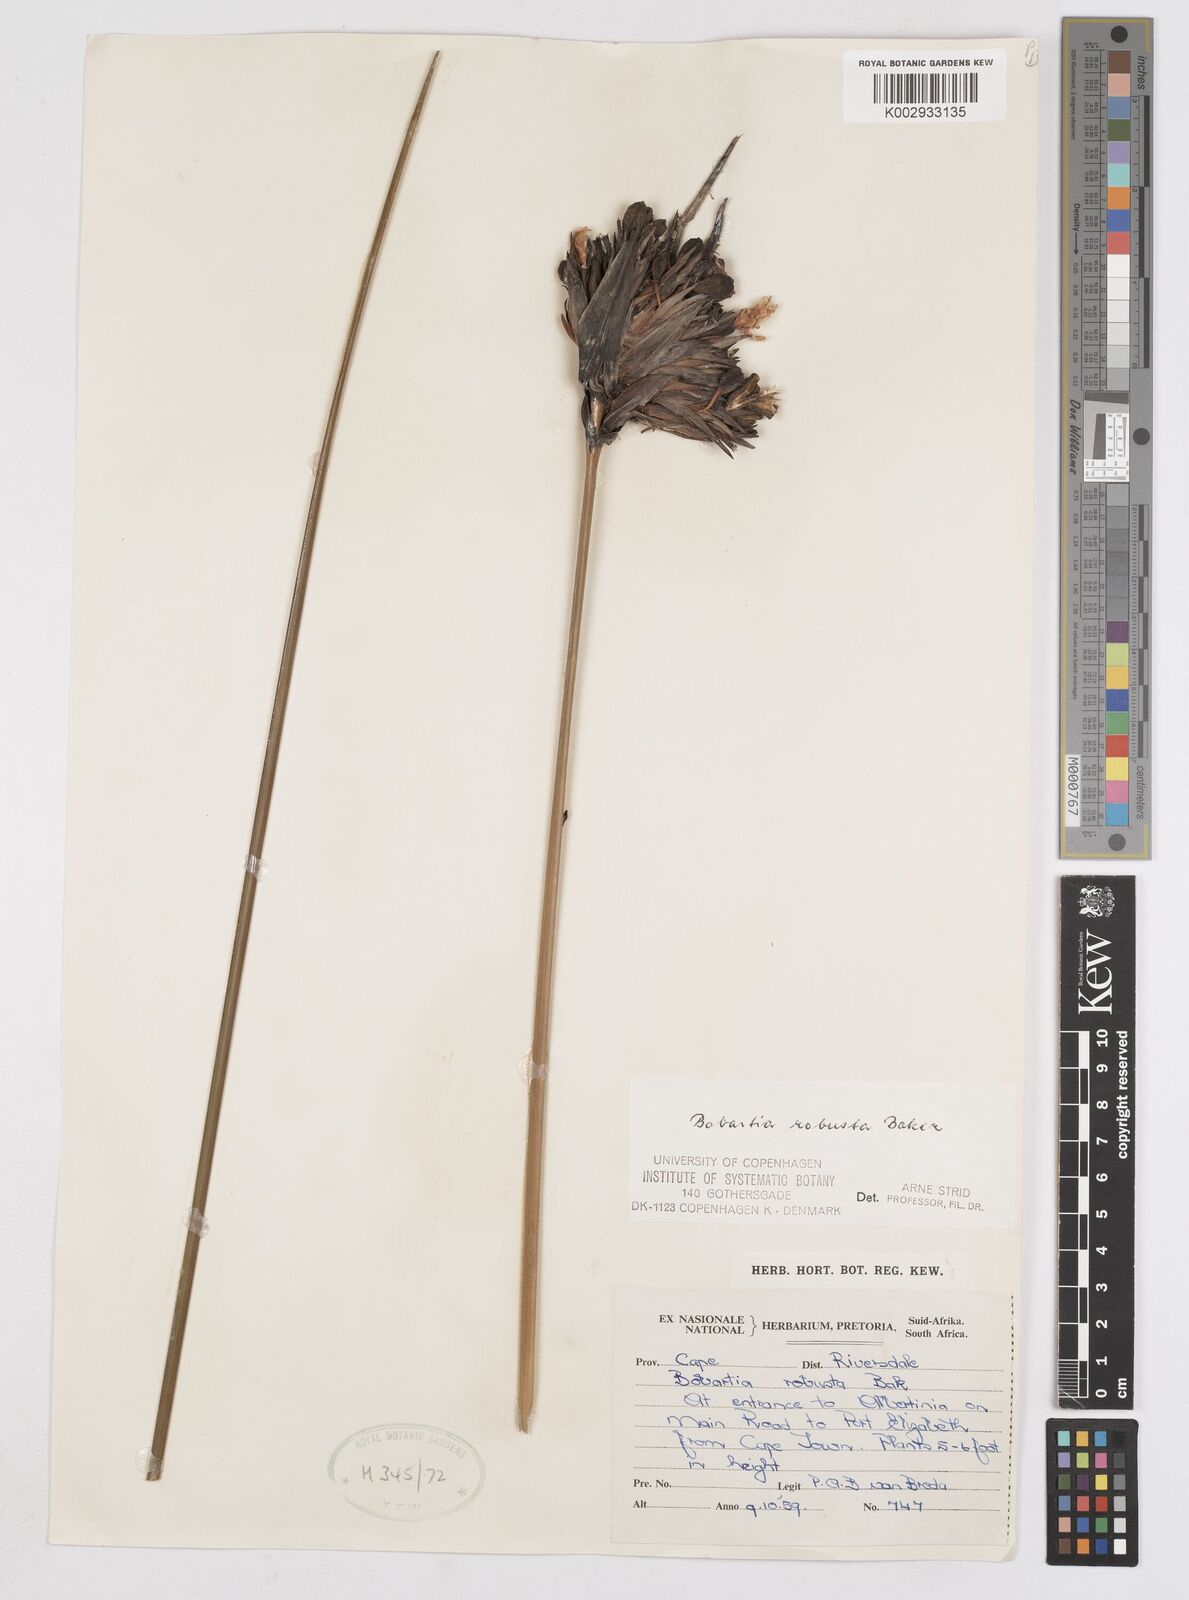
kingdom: Plantae
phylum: Tracheophyta
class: Liliopsida
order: Asparagales
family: Iridaceae
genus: Bobartia
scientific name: Bobartia robusta
